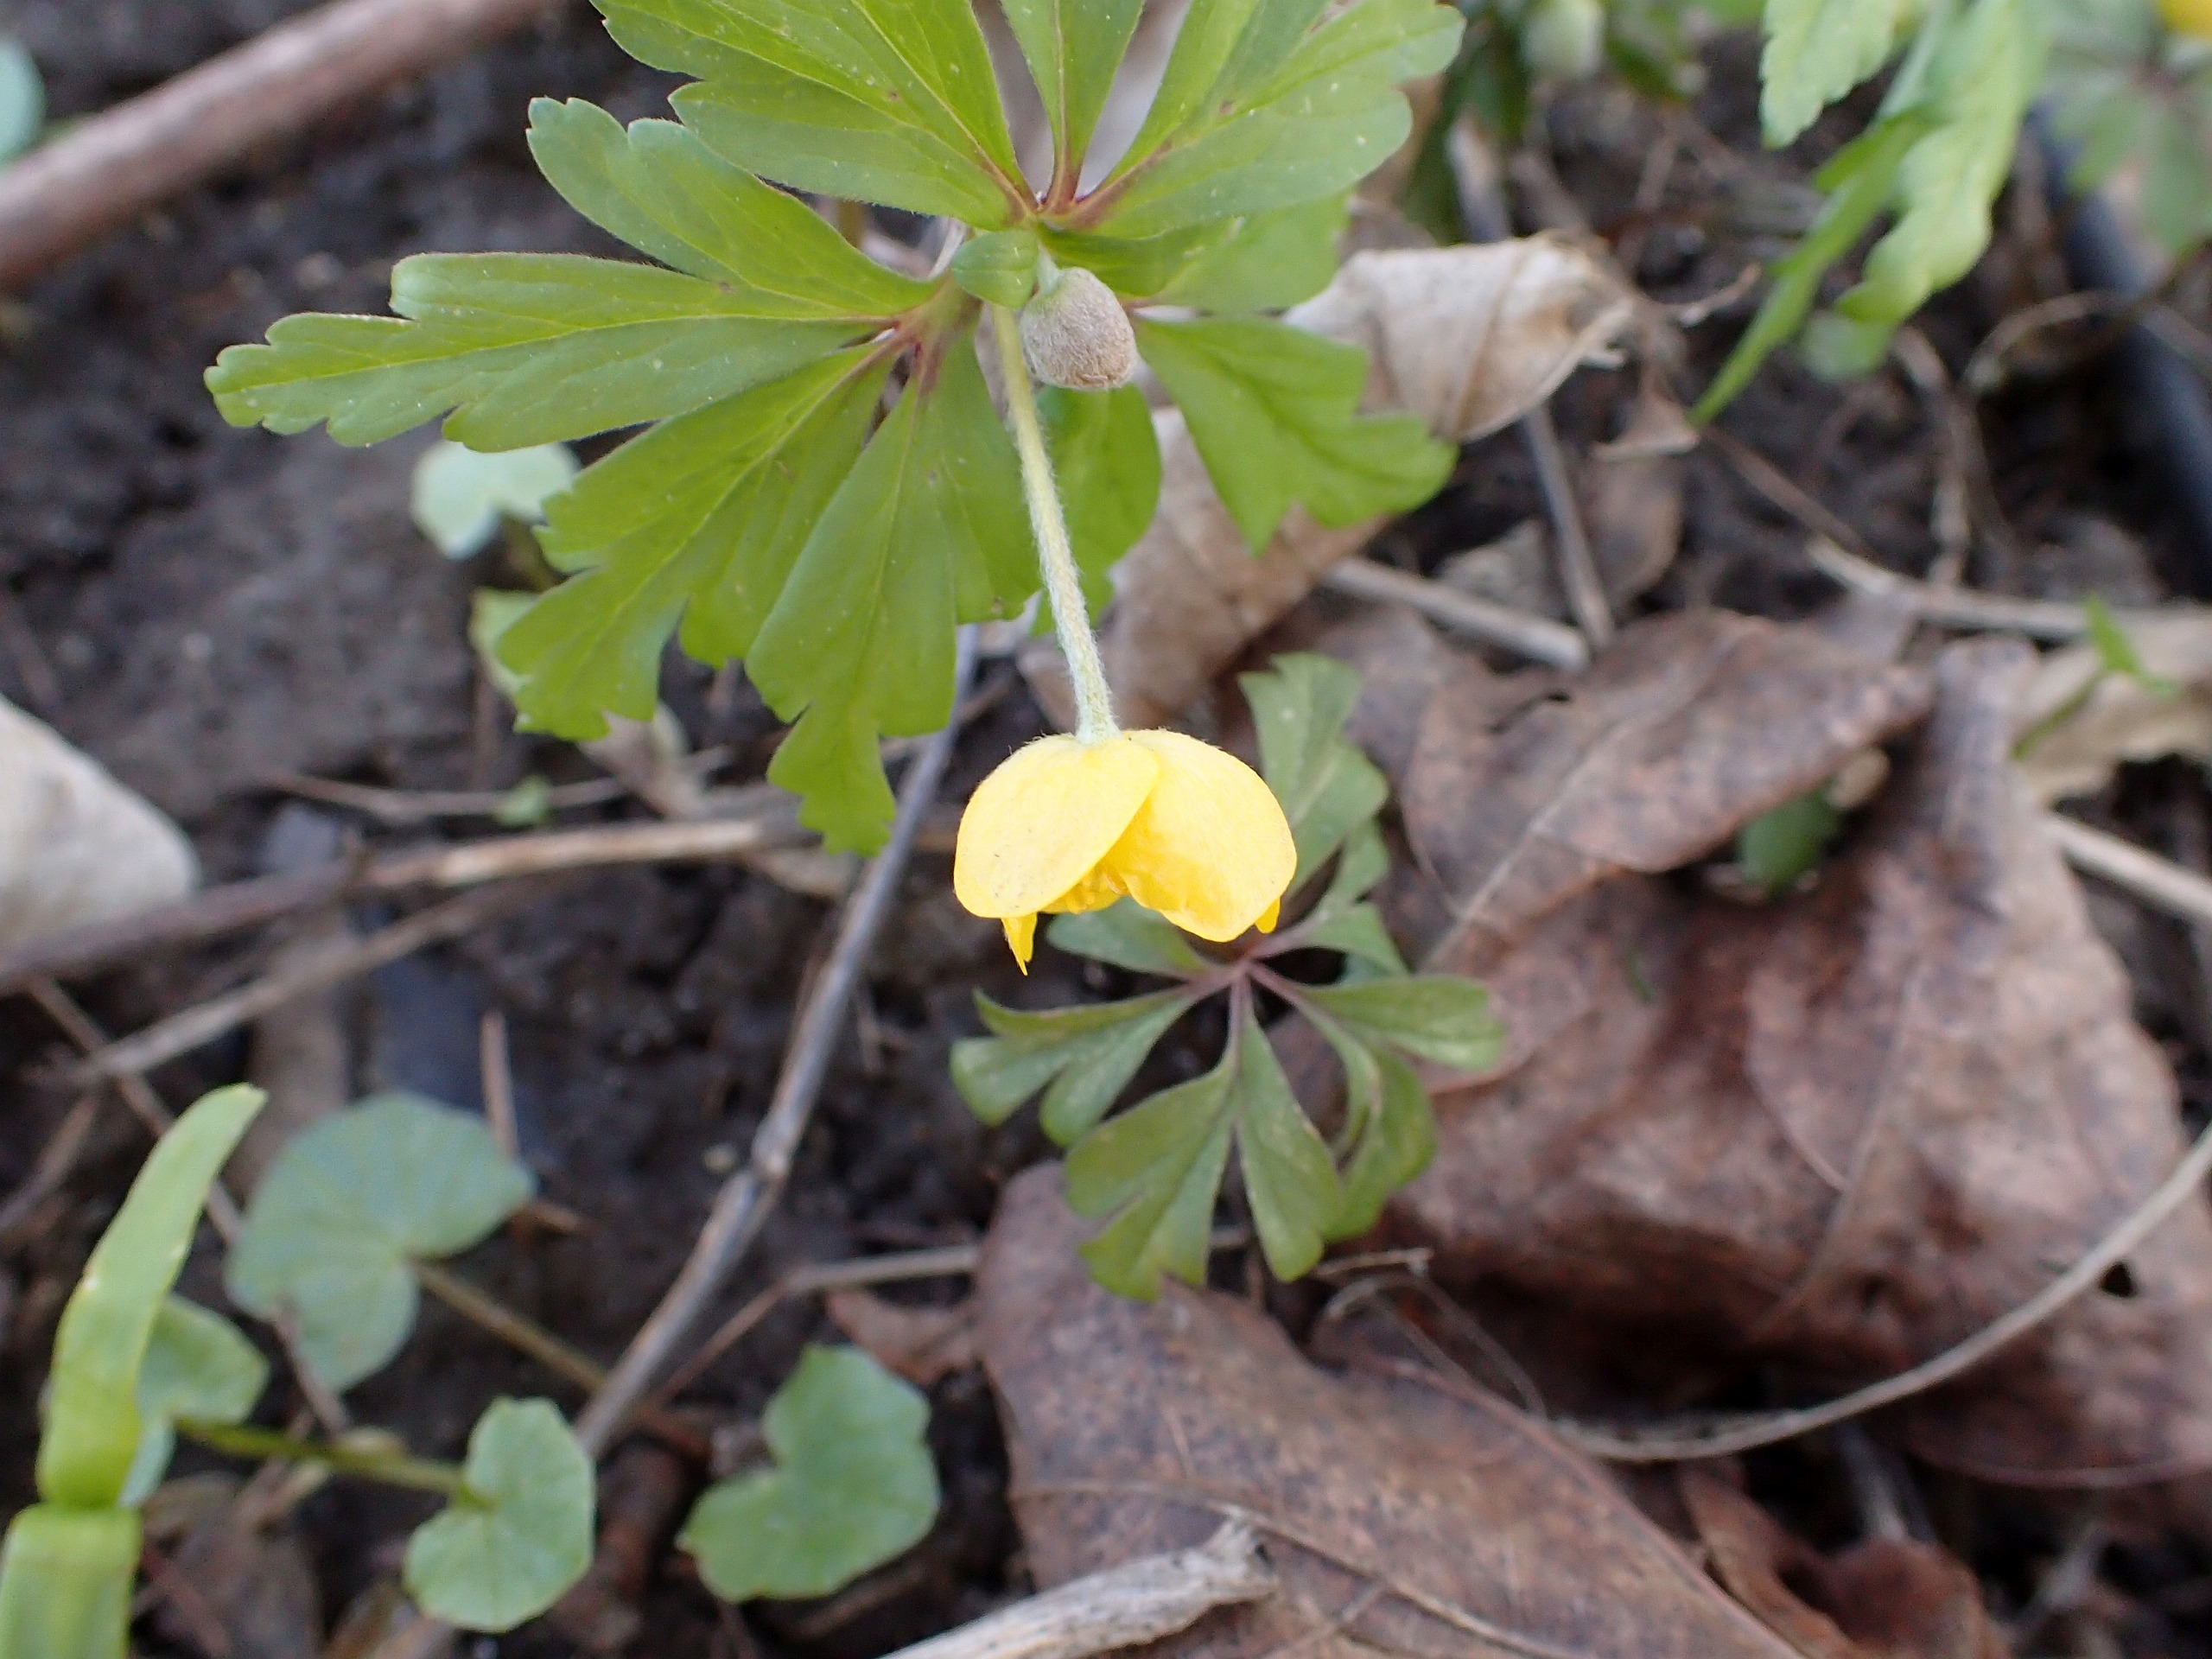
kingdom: Plantae
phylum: Tracheophyta
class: Magnoliopsida
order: Ranunculales
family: Ranunculaceae
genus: Anemone
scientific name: Anemone ranunculoides
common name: Gul anemone
